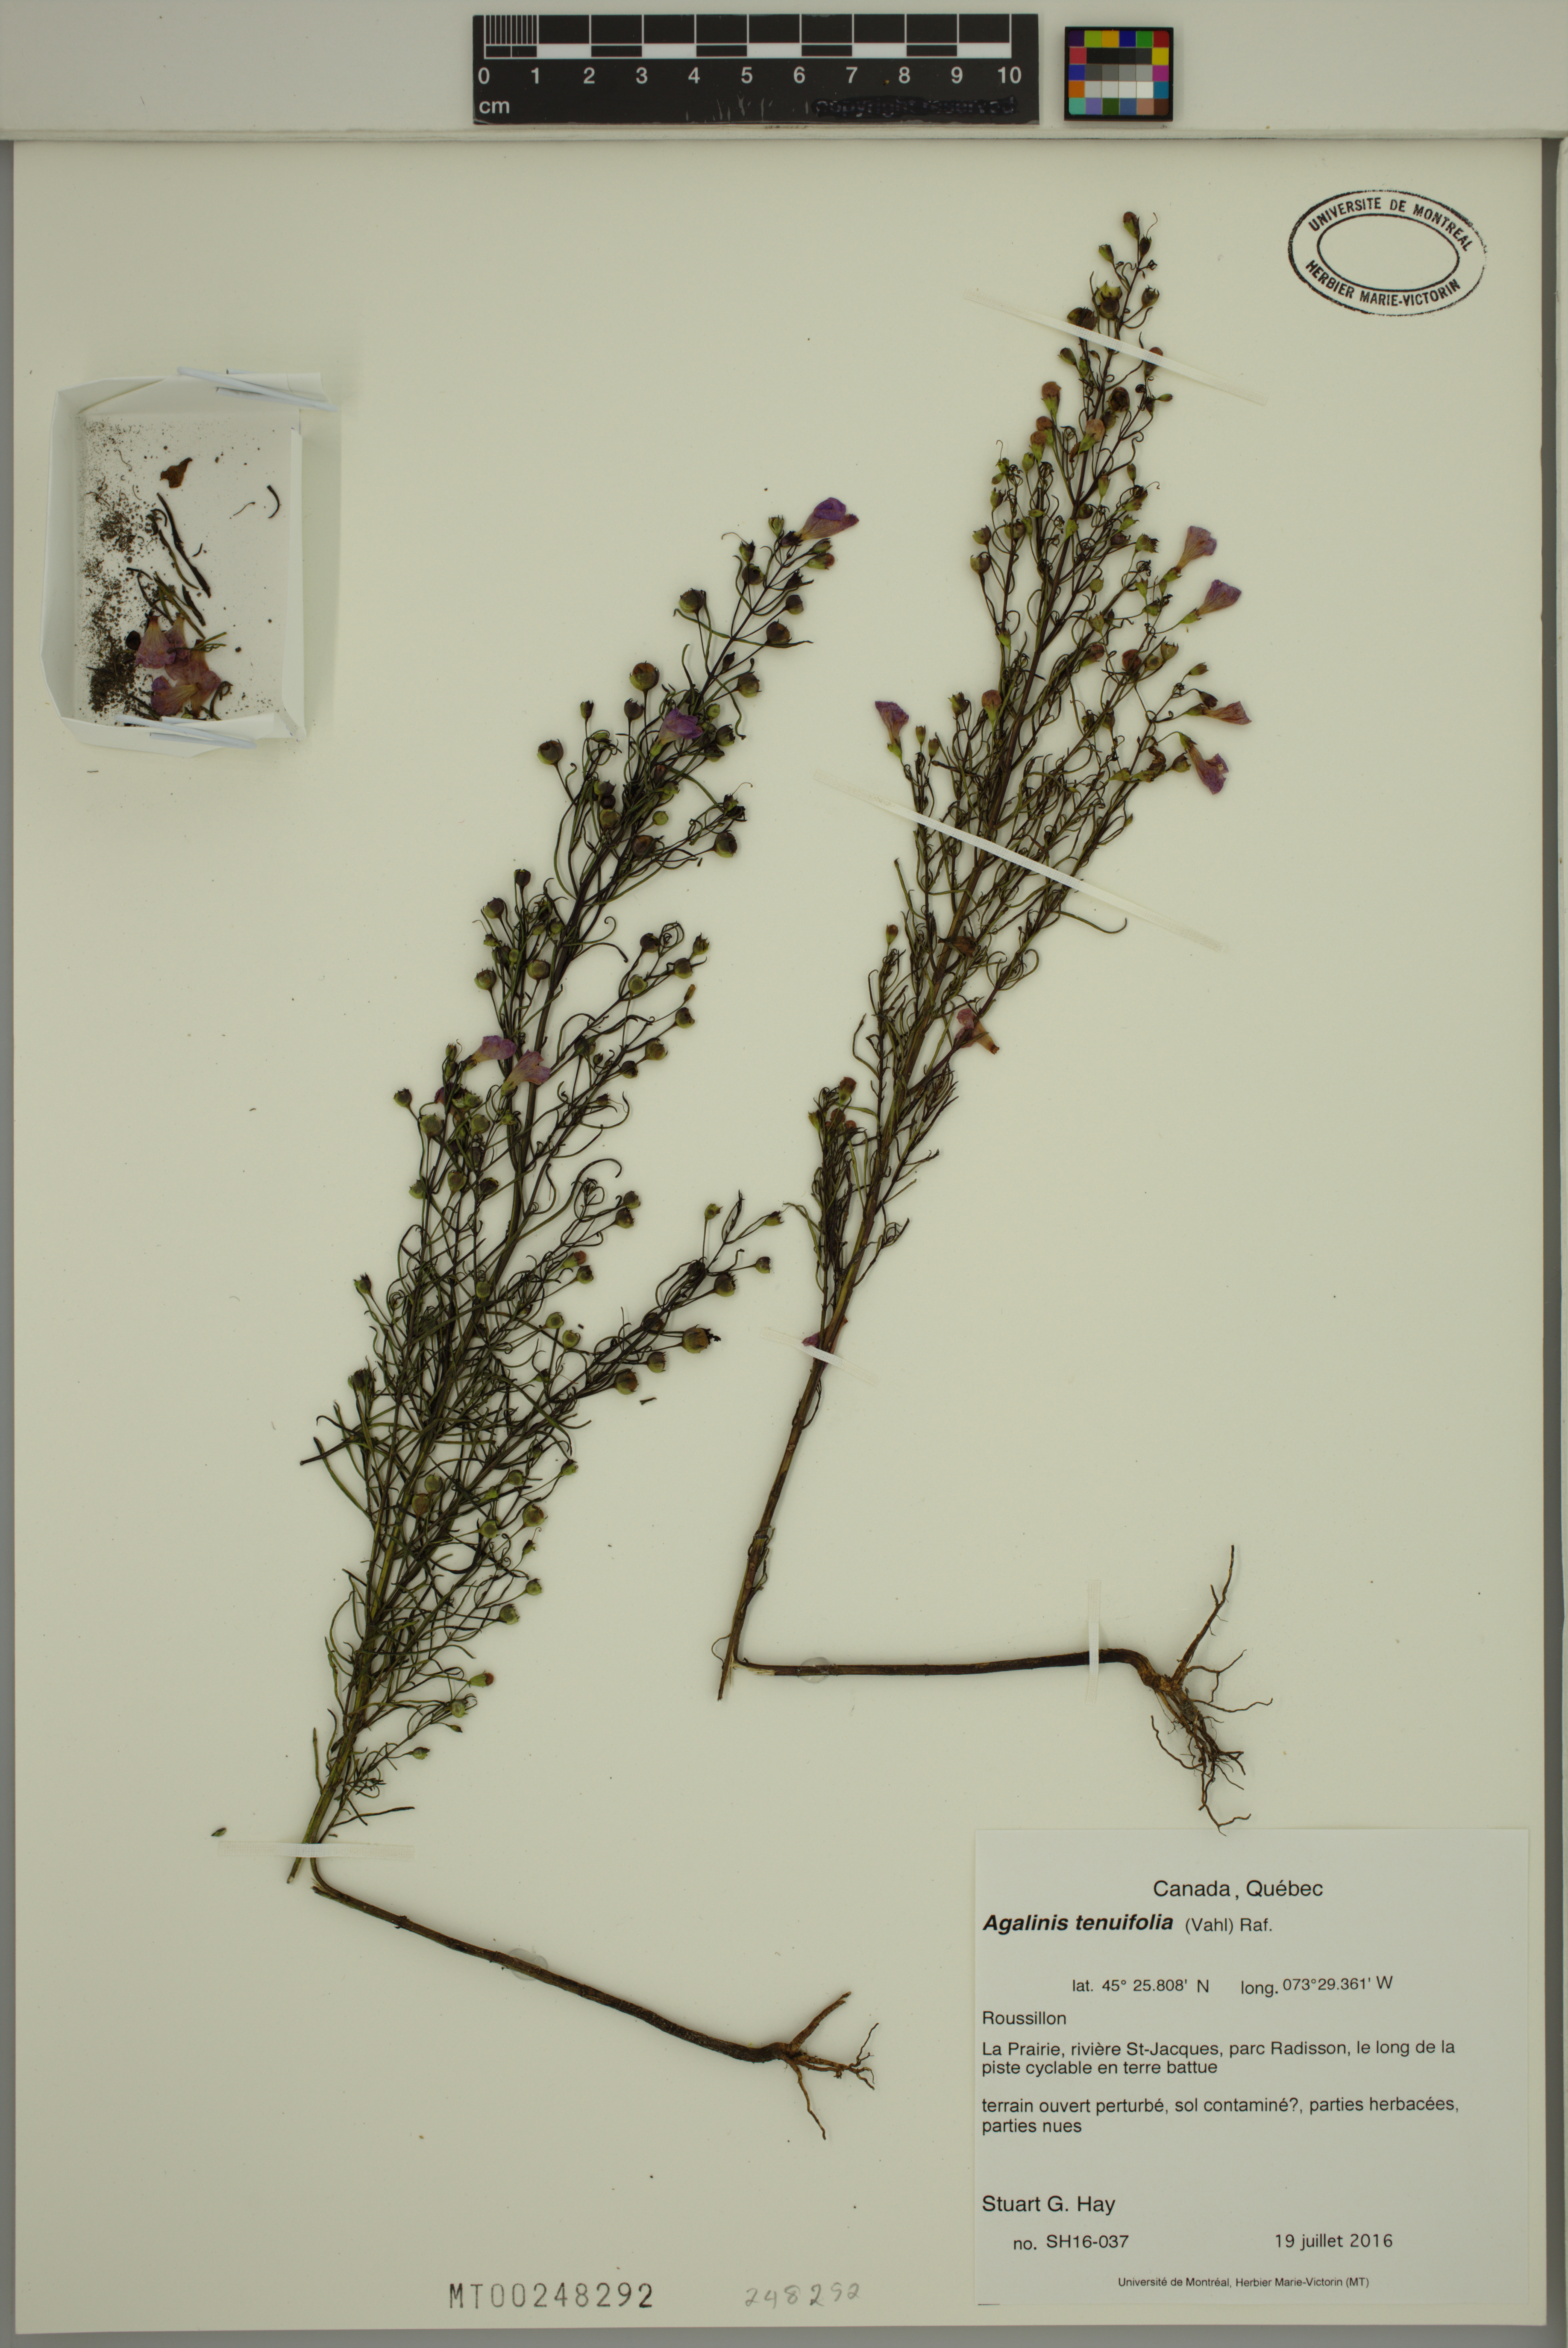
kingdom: Plantae
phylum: Tracheophyta
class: Magnoliopsida
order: Lamiales
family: Orobanchaceae
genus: Agalinis
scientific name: Agalinis tenuifolia
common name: Slender agalinis
